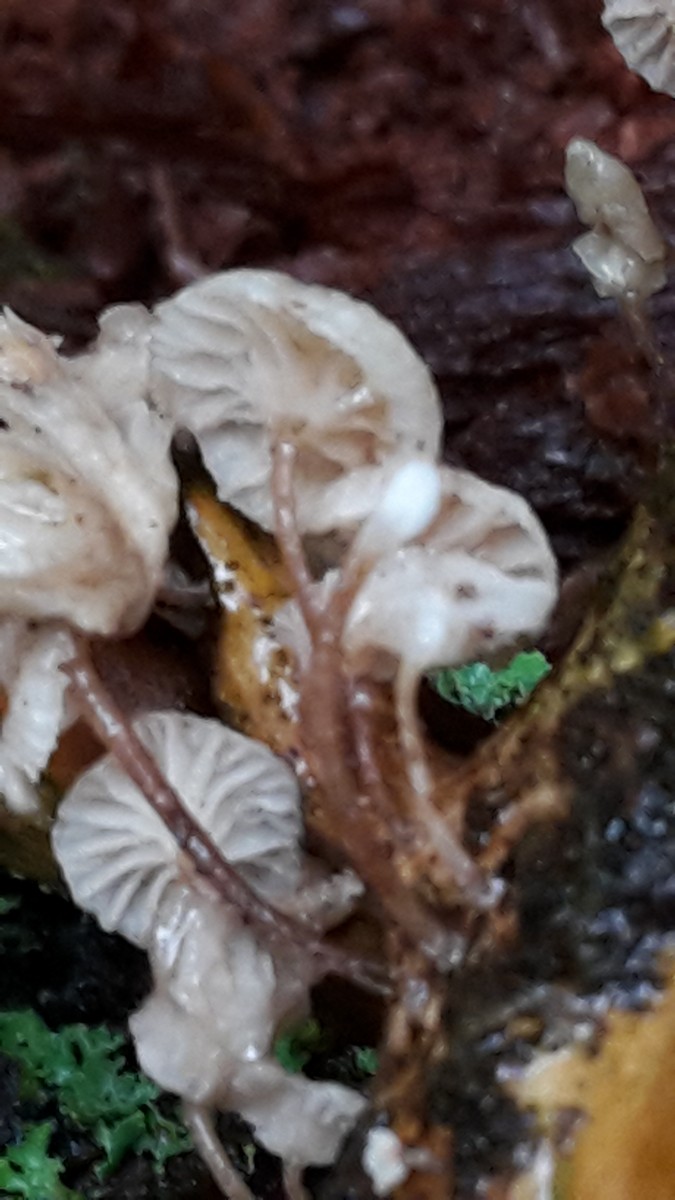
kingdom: Fungi
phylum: Basidiomycota
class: Agaricomycetes
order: Agaricales
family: Omphalotaceae
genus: Collybiopsis
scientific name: Collybiopsis ramealis
